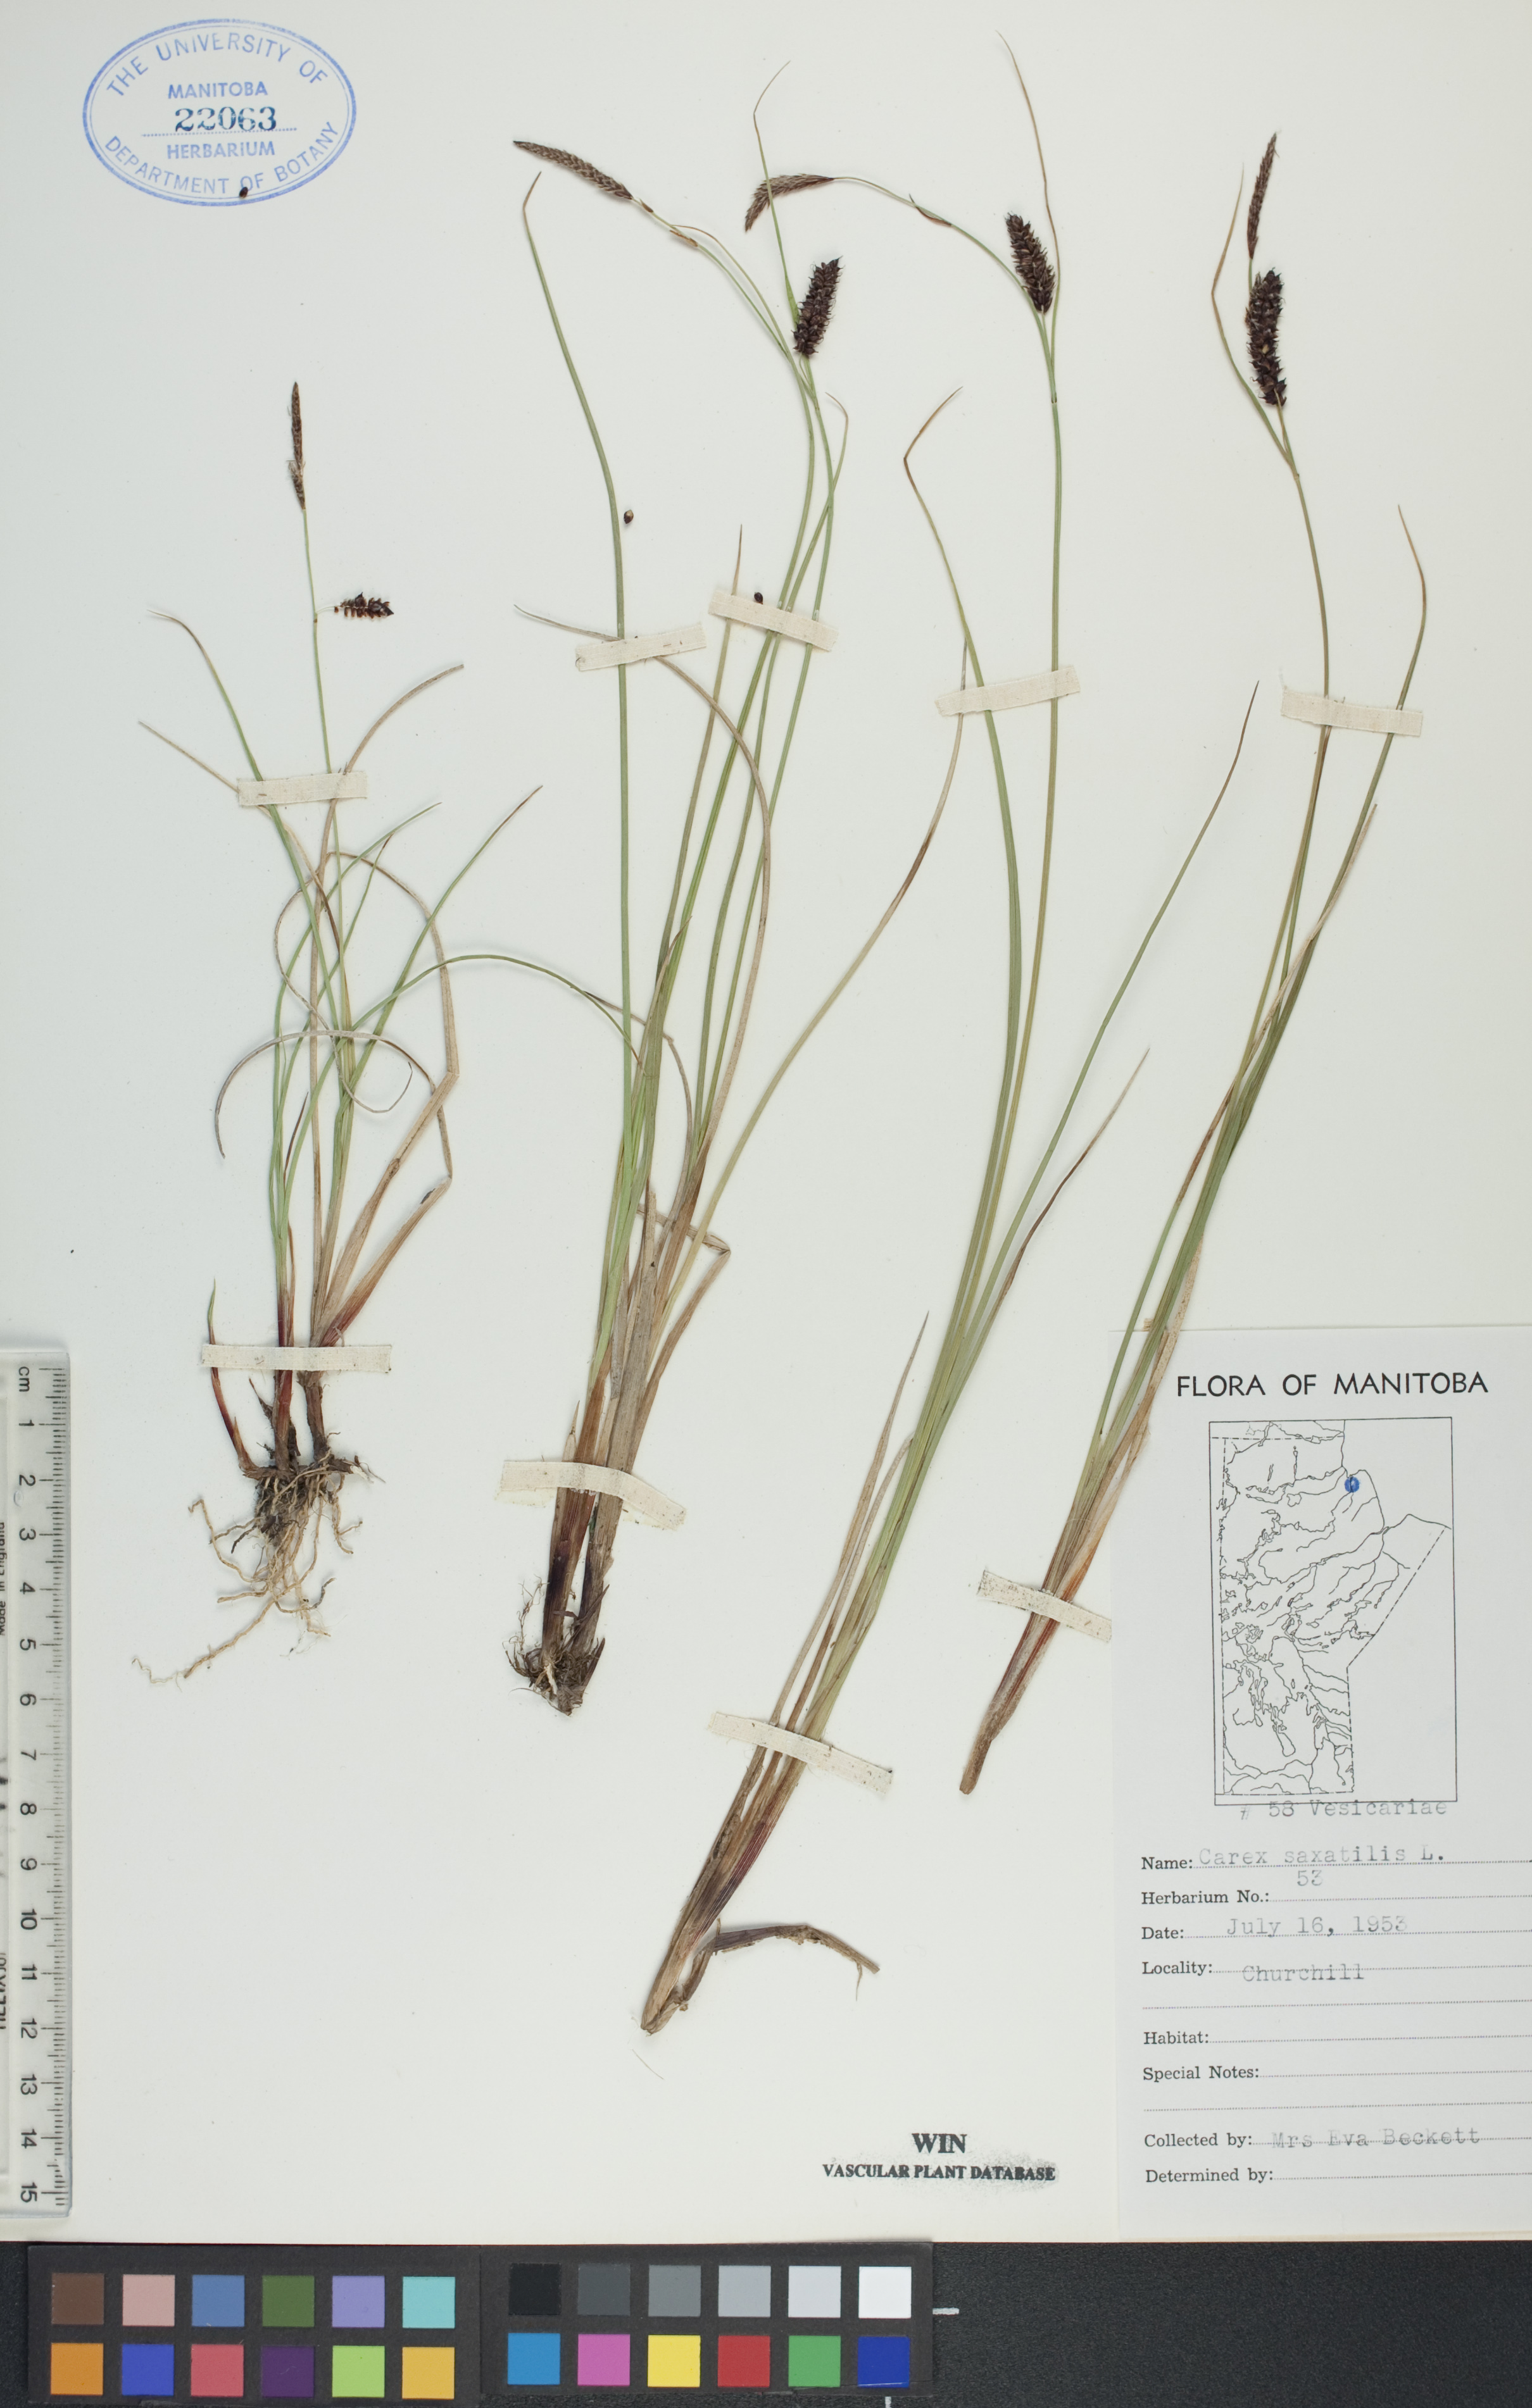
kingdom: Plantae
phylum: Tracheophyta
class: Liliopsida
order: Poales
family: Cyperaceae
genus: Carex
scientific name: Carex saxatilis
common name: Russet sedge
